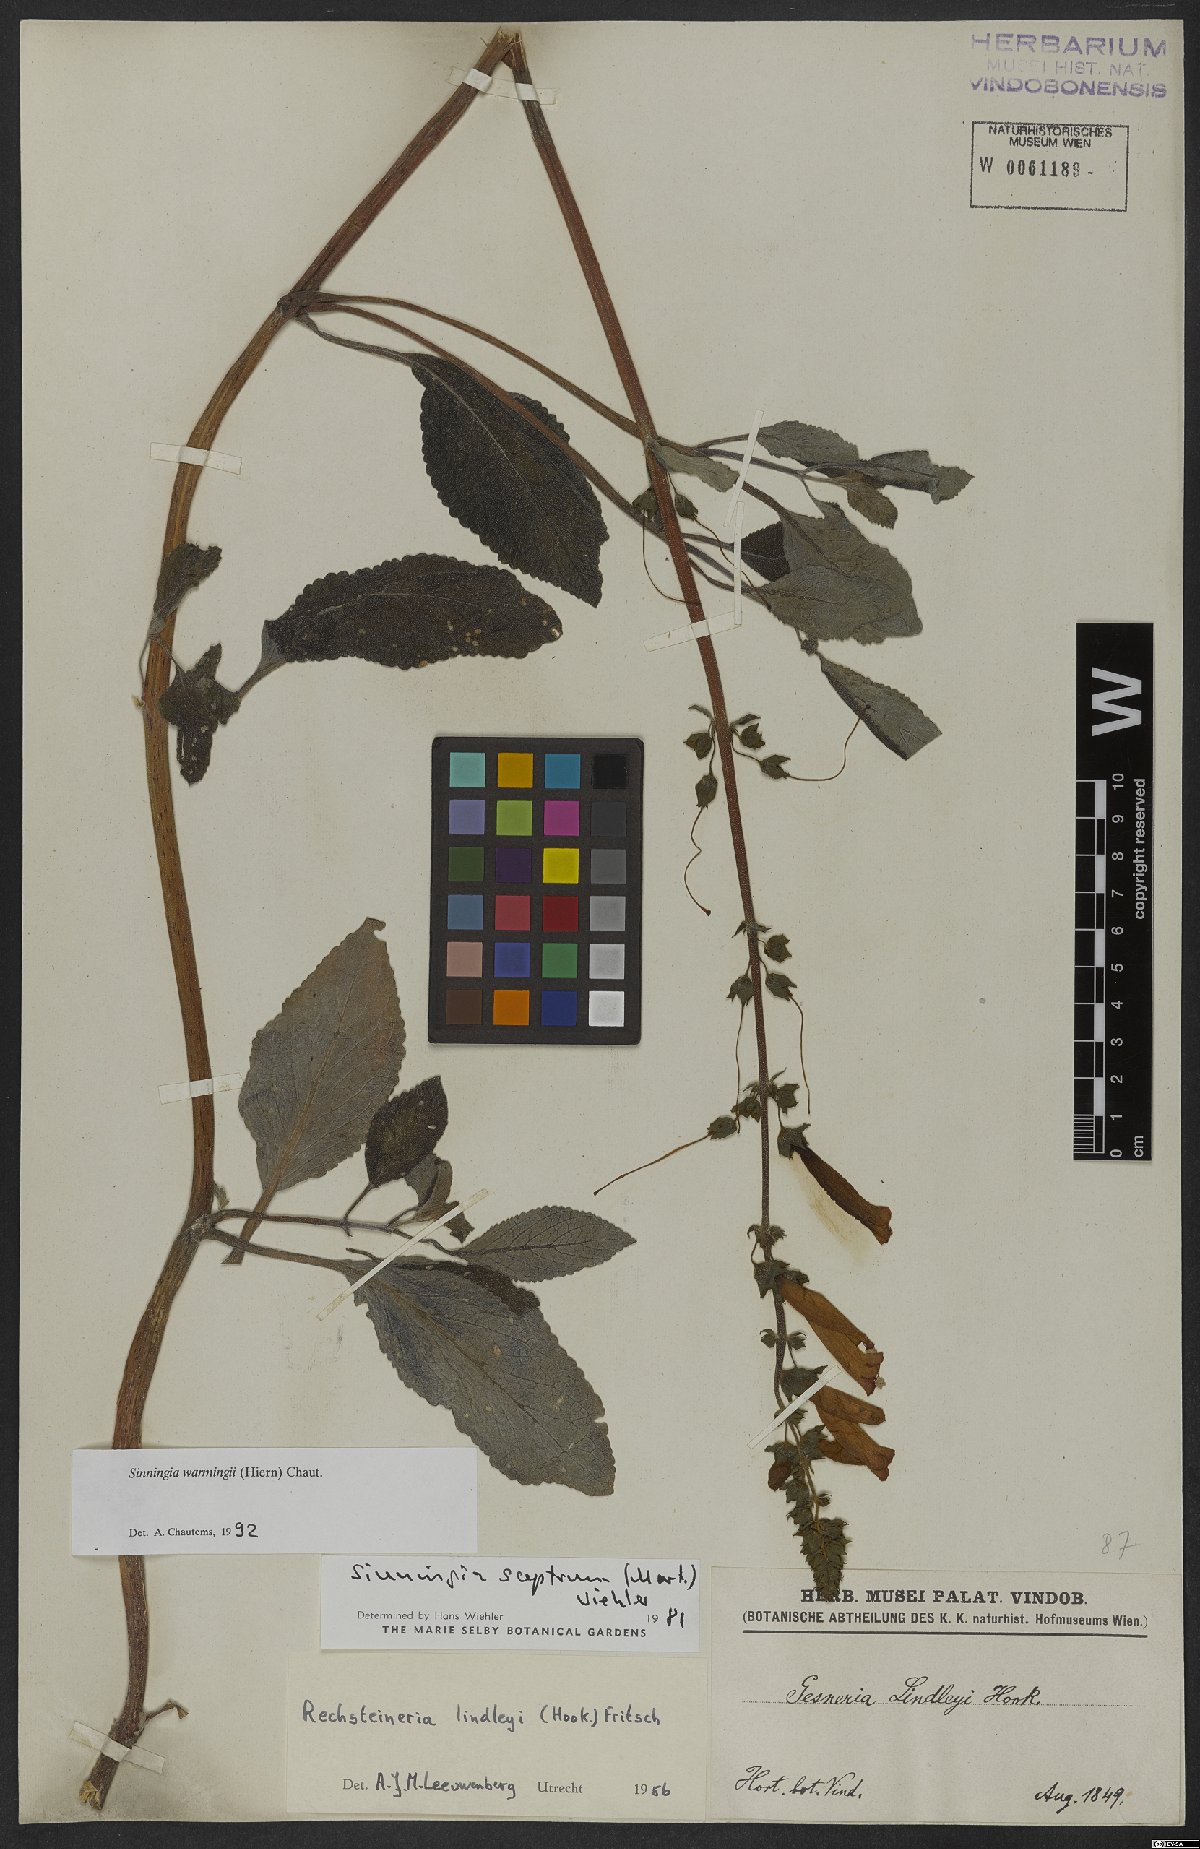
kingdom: Plantae
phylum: Tracheophyta
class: Magnoliopsida
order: Lamiales
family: Gesneriaceae
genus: Sinningia
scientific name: Sinningia warmingii
